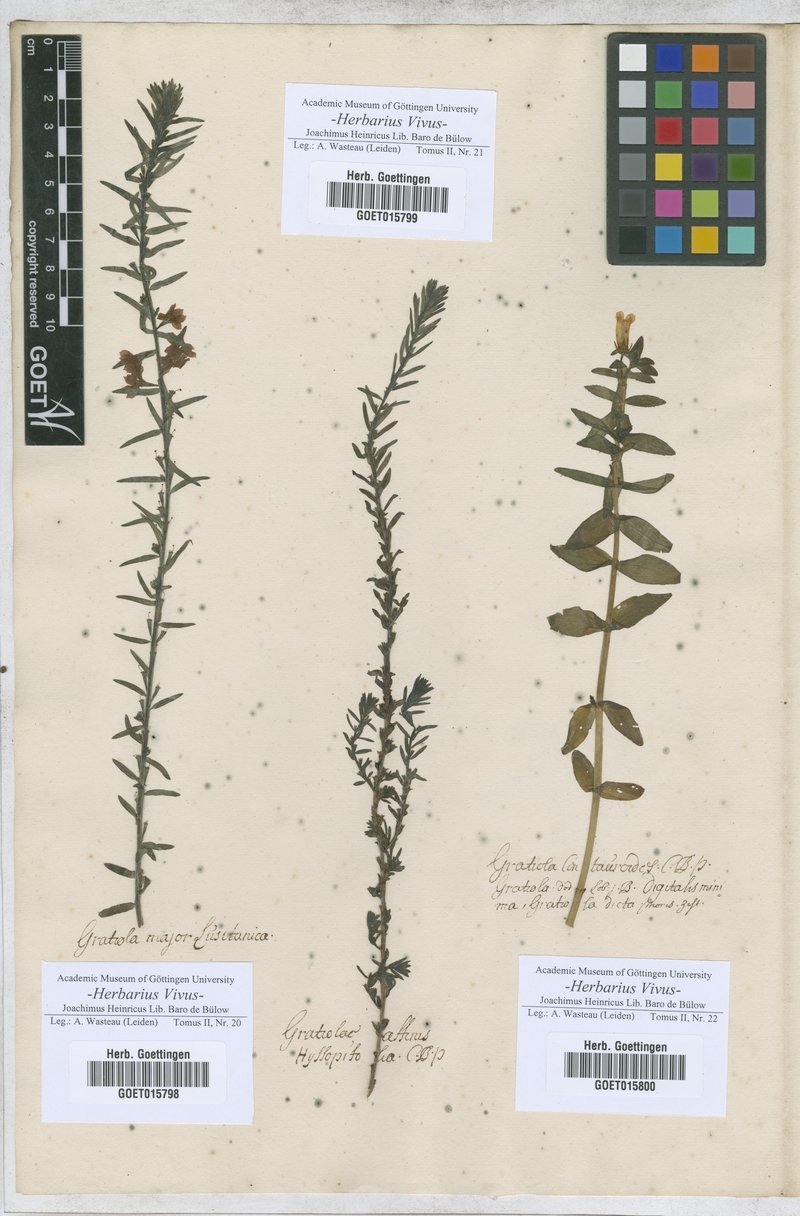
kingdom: Plantae
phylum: Tracheophyta
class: Magnoliopsida
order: Lamiales
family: Plantaginaceae
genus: Gratiola
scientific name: Gratiola
